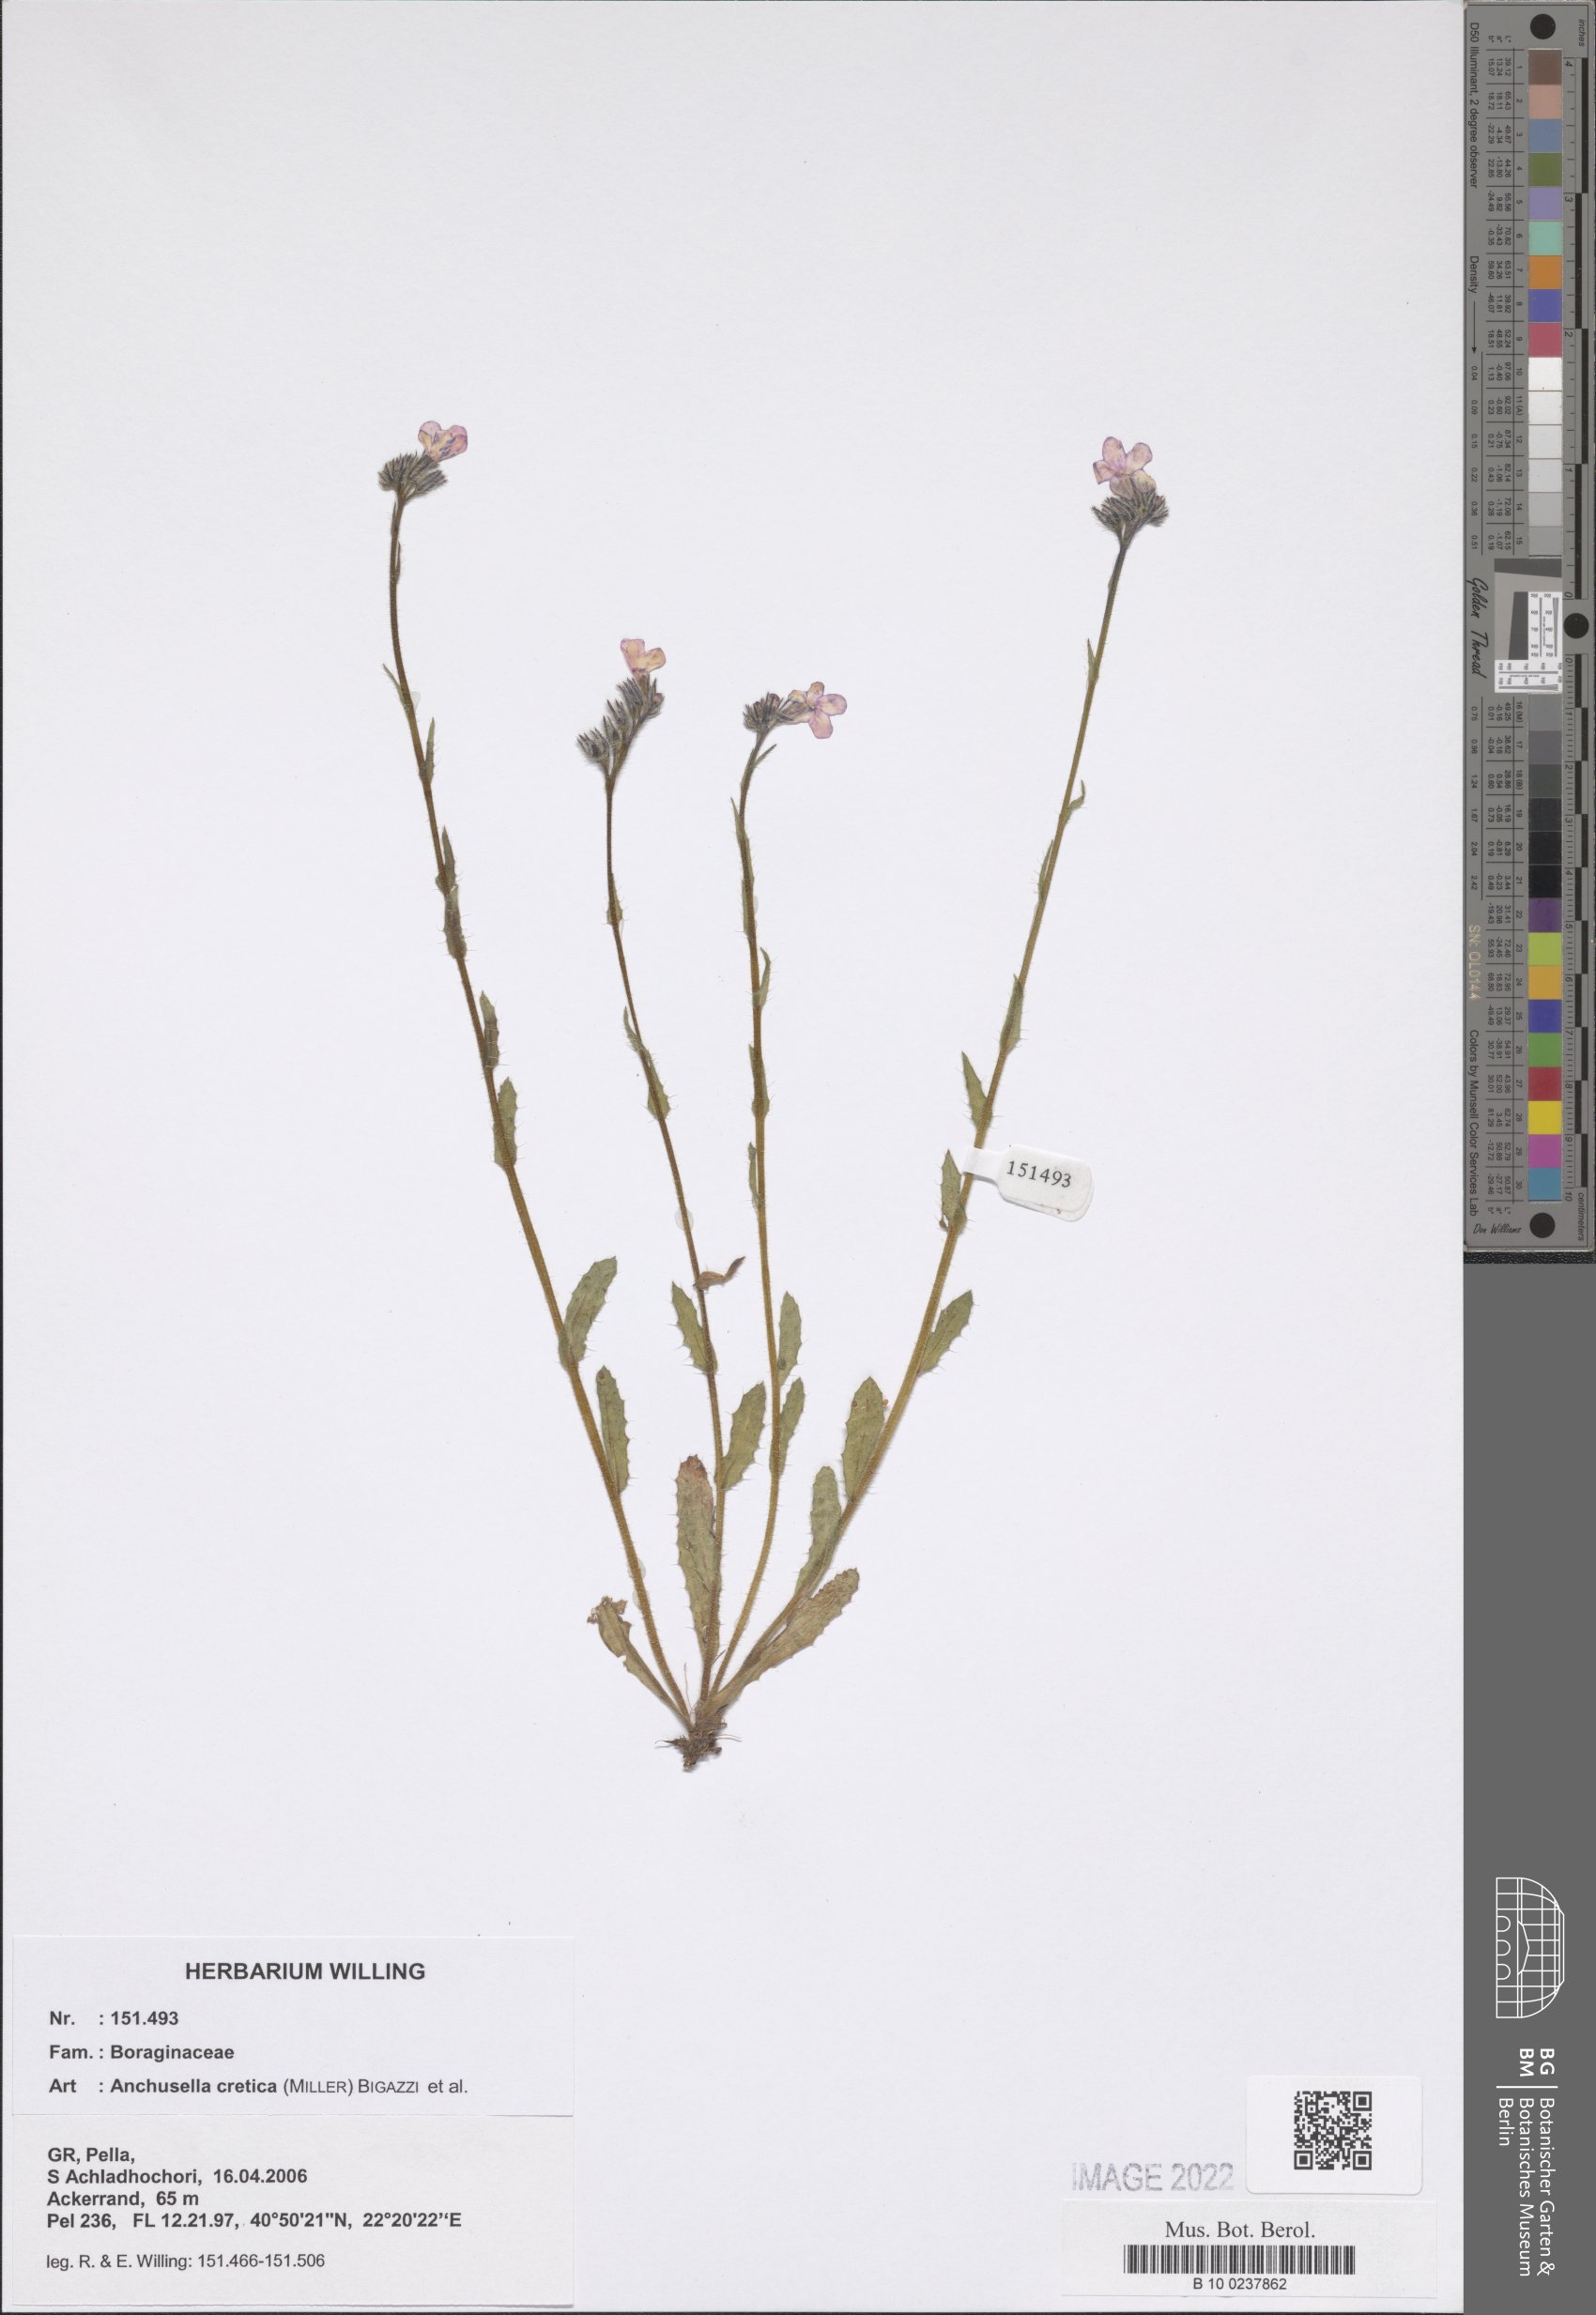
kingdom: Plantae
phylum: Tracheophyta
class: Magnoliopsida
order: Boraginales
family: Boraginaceae
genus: Lycopsis
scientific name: Lycopsis arvensis
